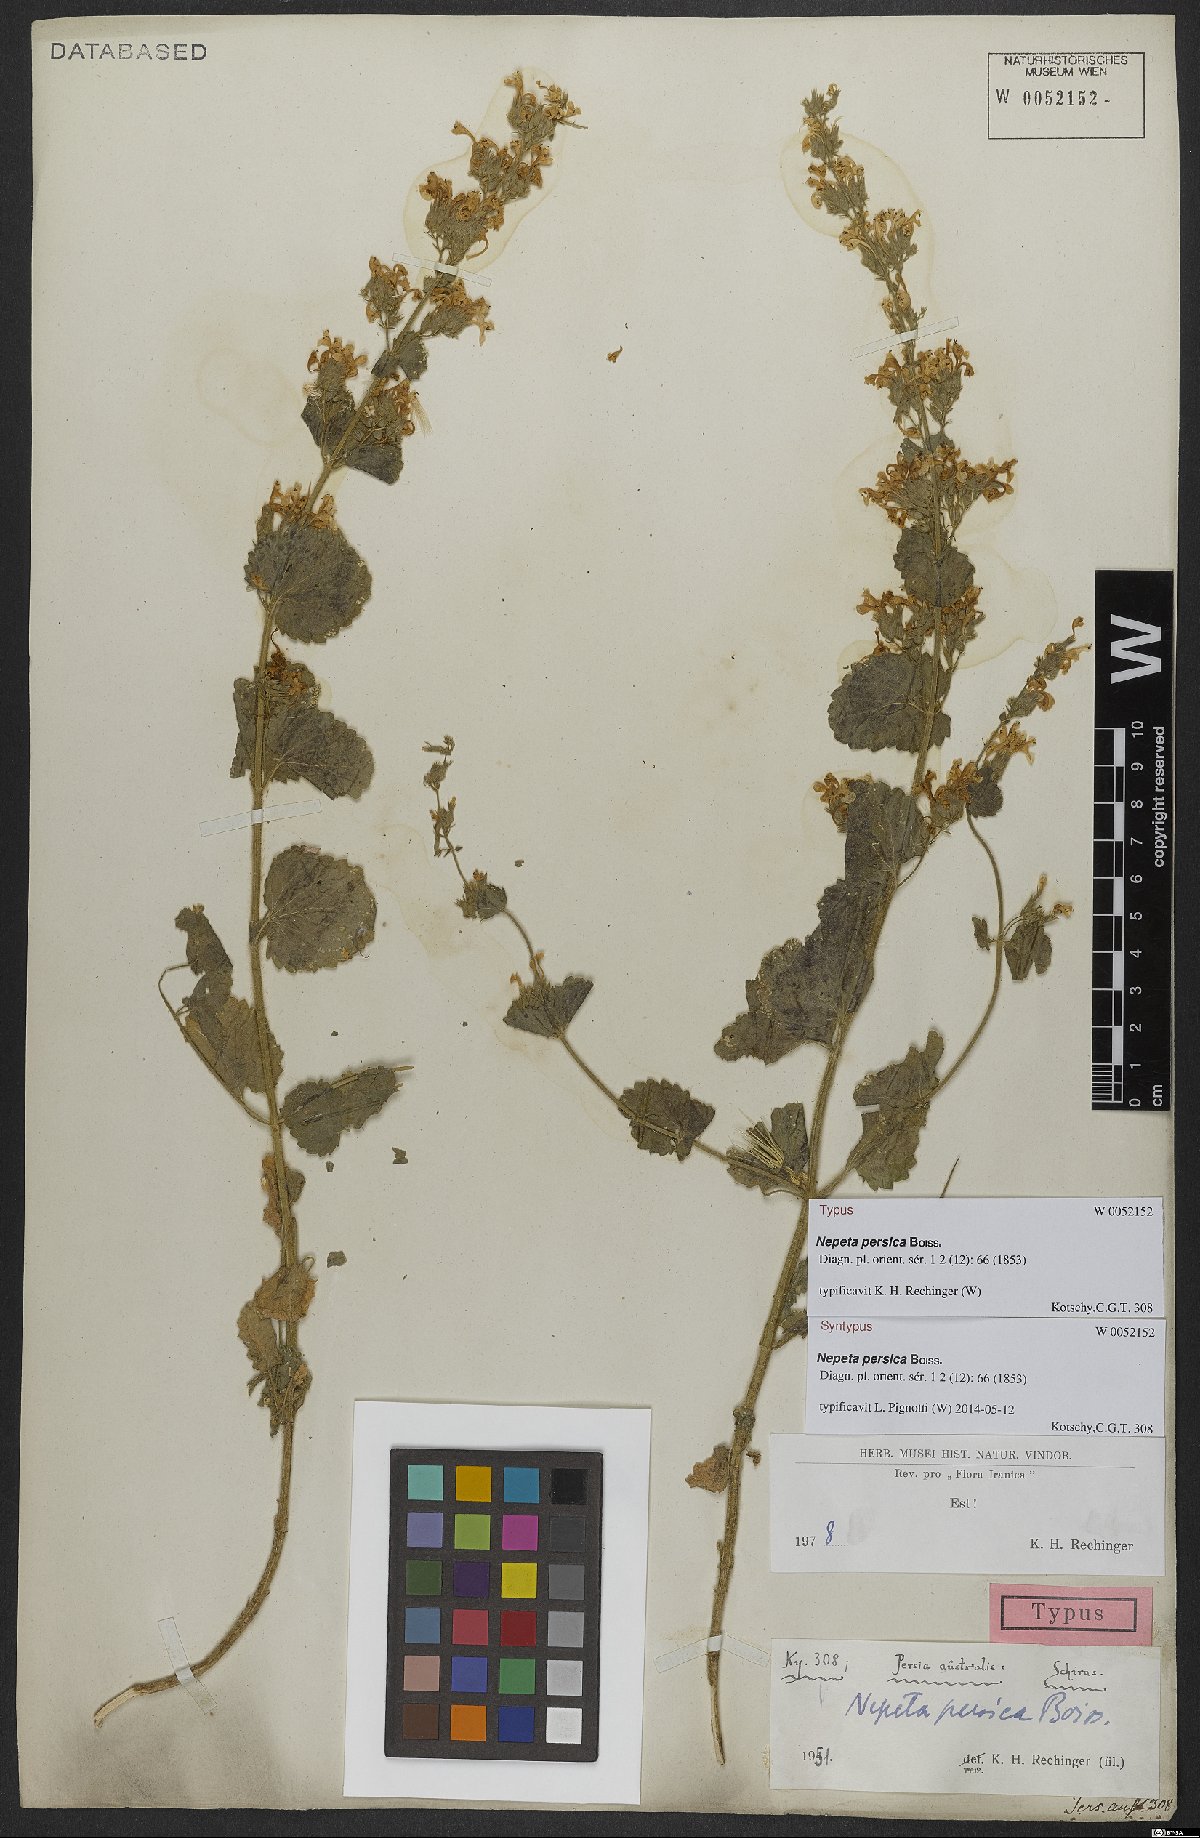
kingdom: Plantae
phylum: Tracheophyta
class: Magnoliopsida
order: Lamiales
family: Lamiaceae
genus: Nepeta
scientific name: Nepeta persica
